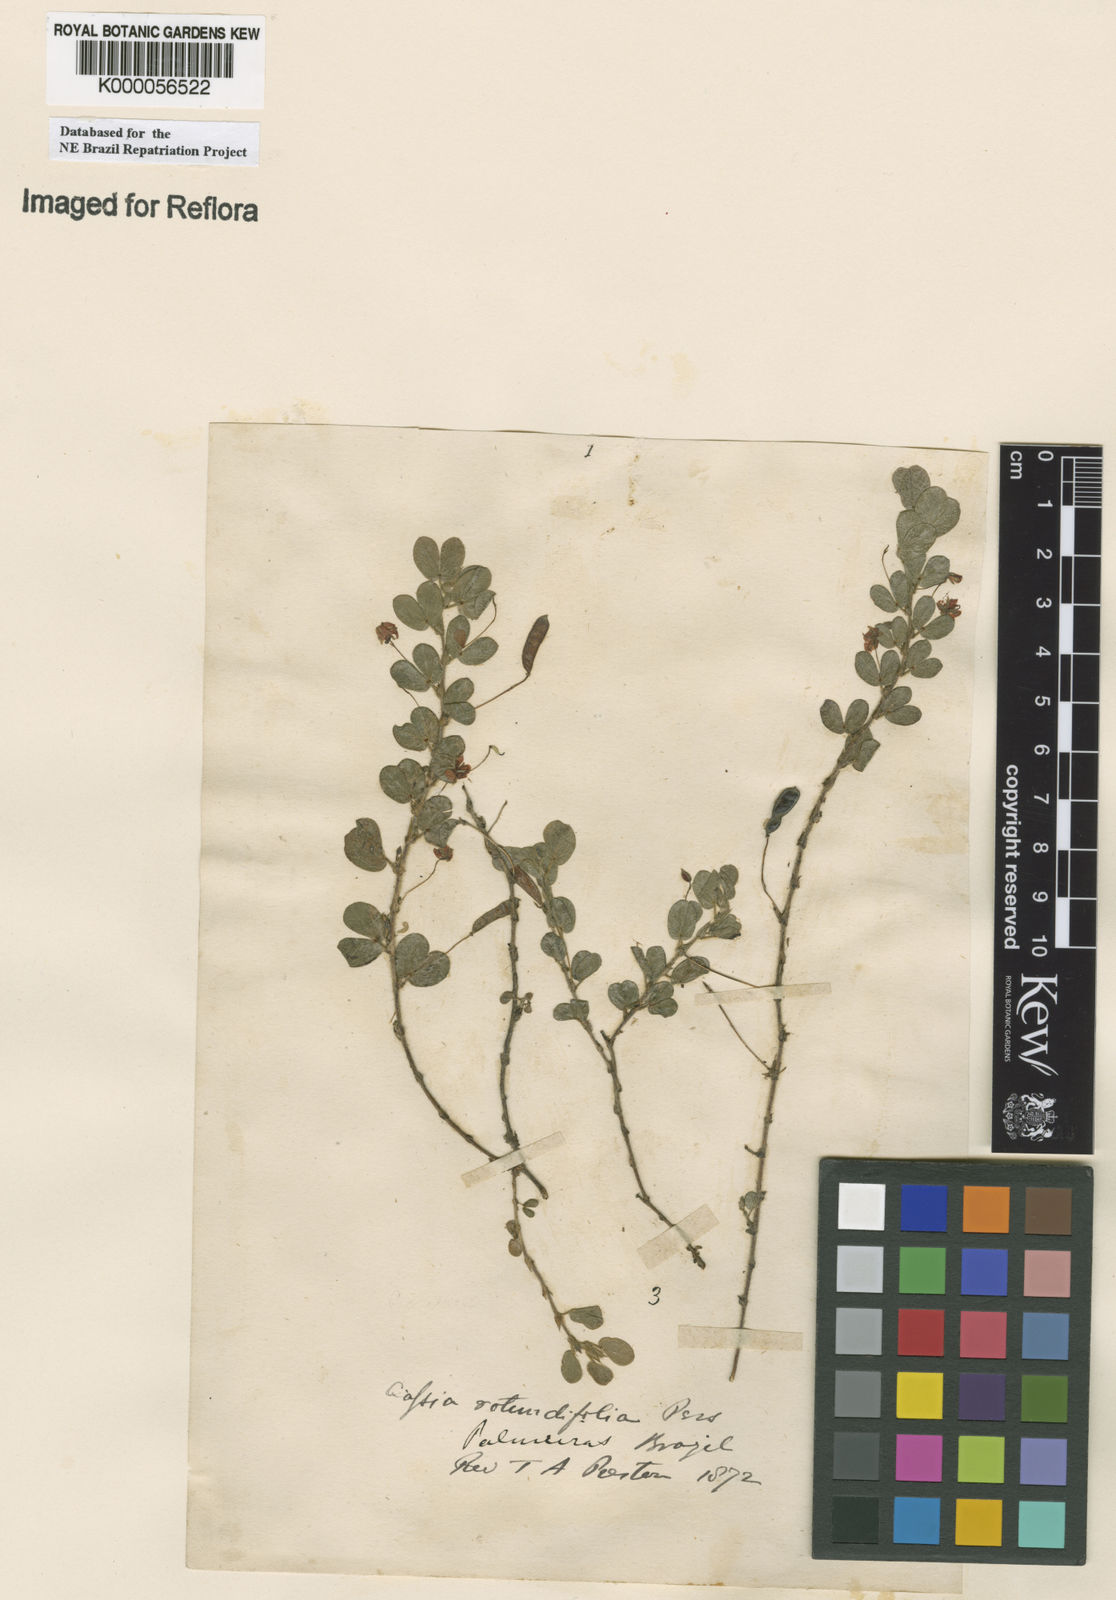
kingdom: Plantae
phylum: Tracheophyta
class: Magnoliopsida
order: Fabales
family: Fabaceae
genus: Chamaecrista
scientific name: Chamaecrista rotundifolia
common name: Round-leaf cassia
